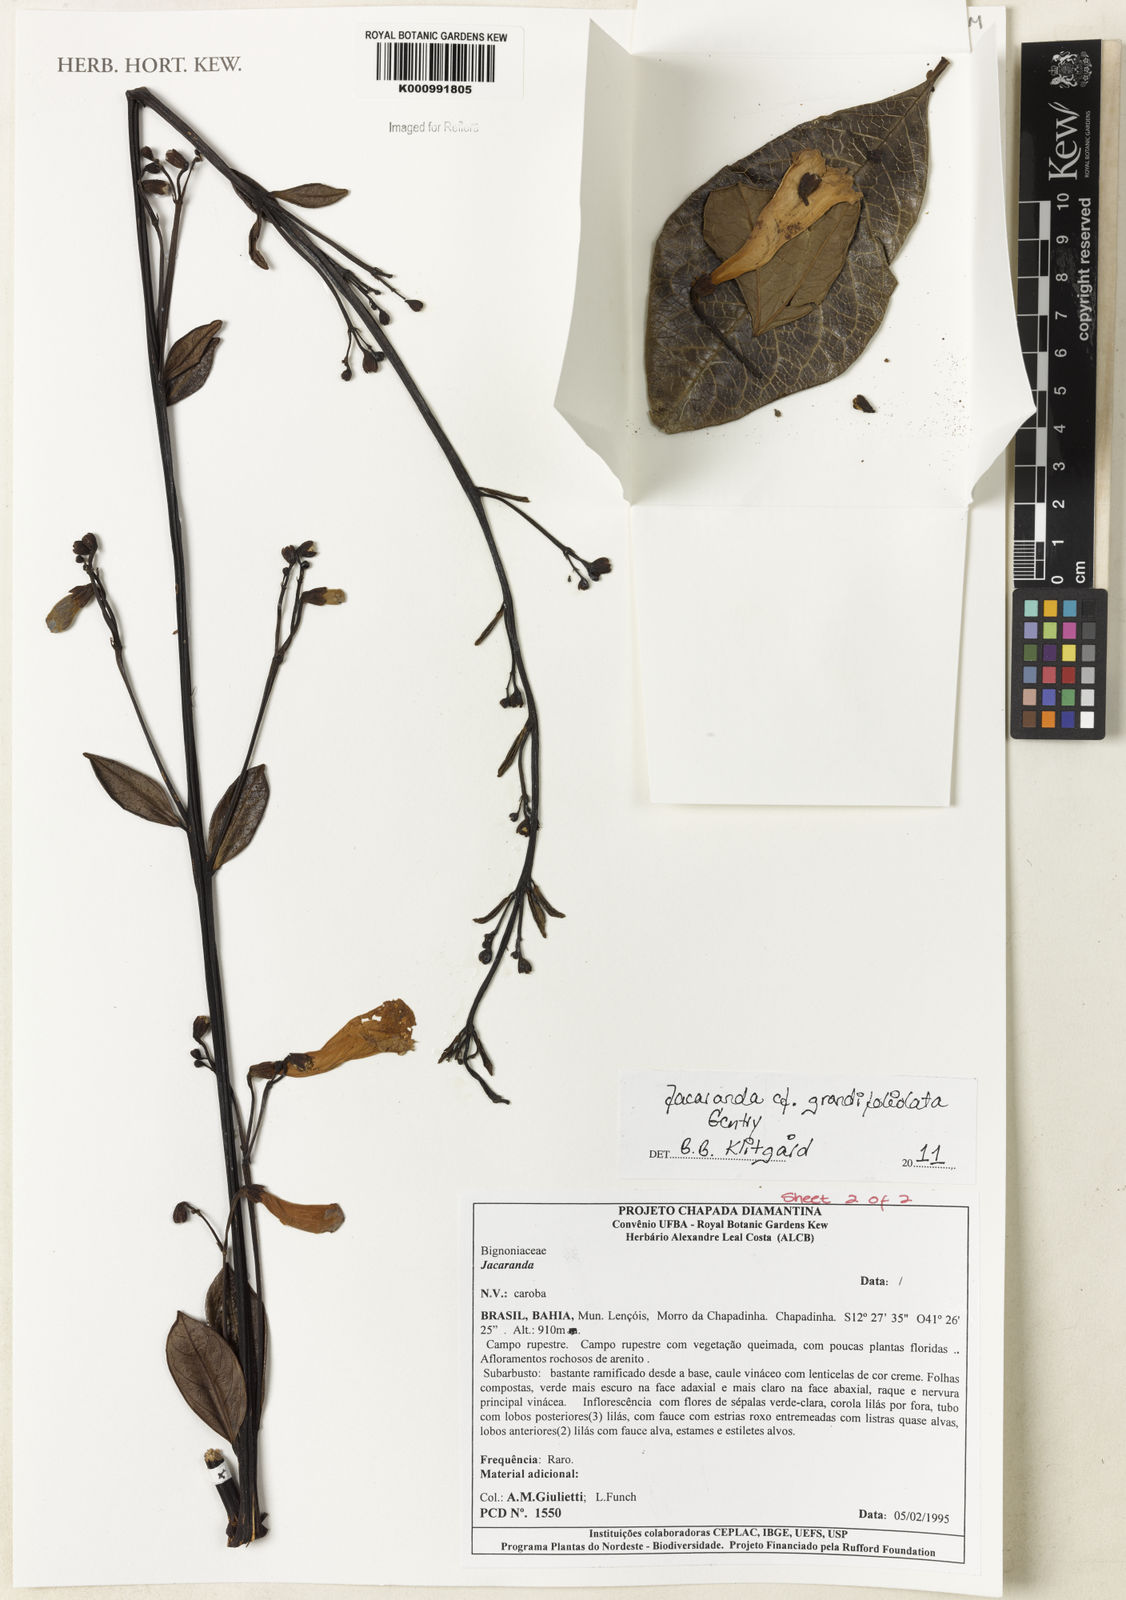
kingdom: Plantae
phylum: Tracheophyta
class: Magnoliopsida
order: Lamiales
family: Bignoniaceae
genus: Jacaranda
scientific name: Jacaranda grandifoliolata
